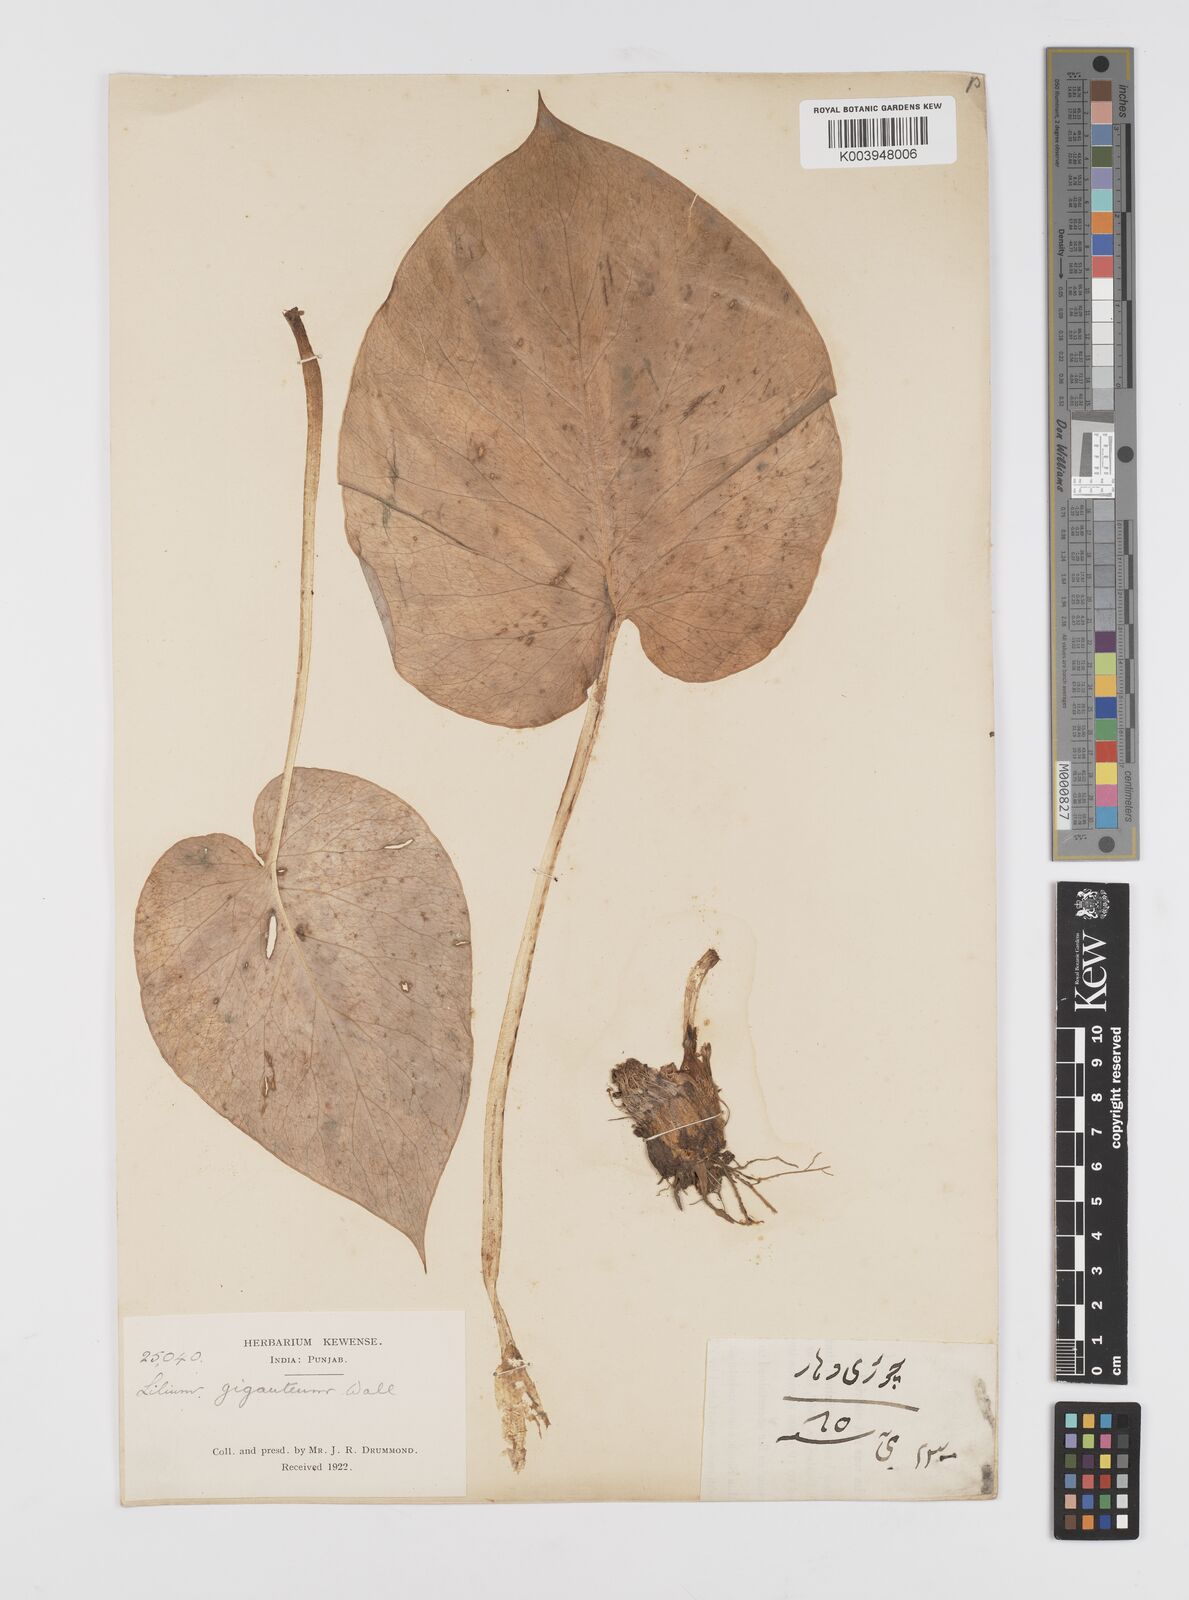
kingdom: Plantae
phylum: Tracheophyta
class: Liliopsida
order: Liliales
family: Liliaceae
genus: Cardiocrinum
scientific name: Cardiocrinum giganteum
